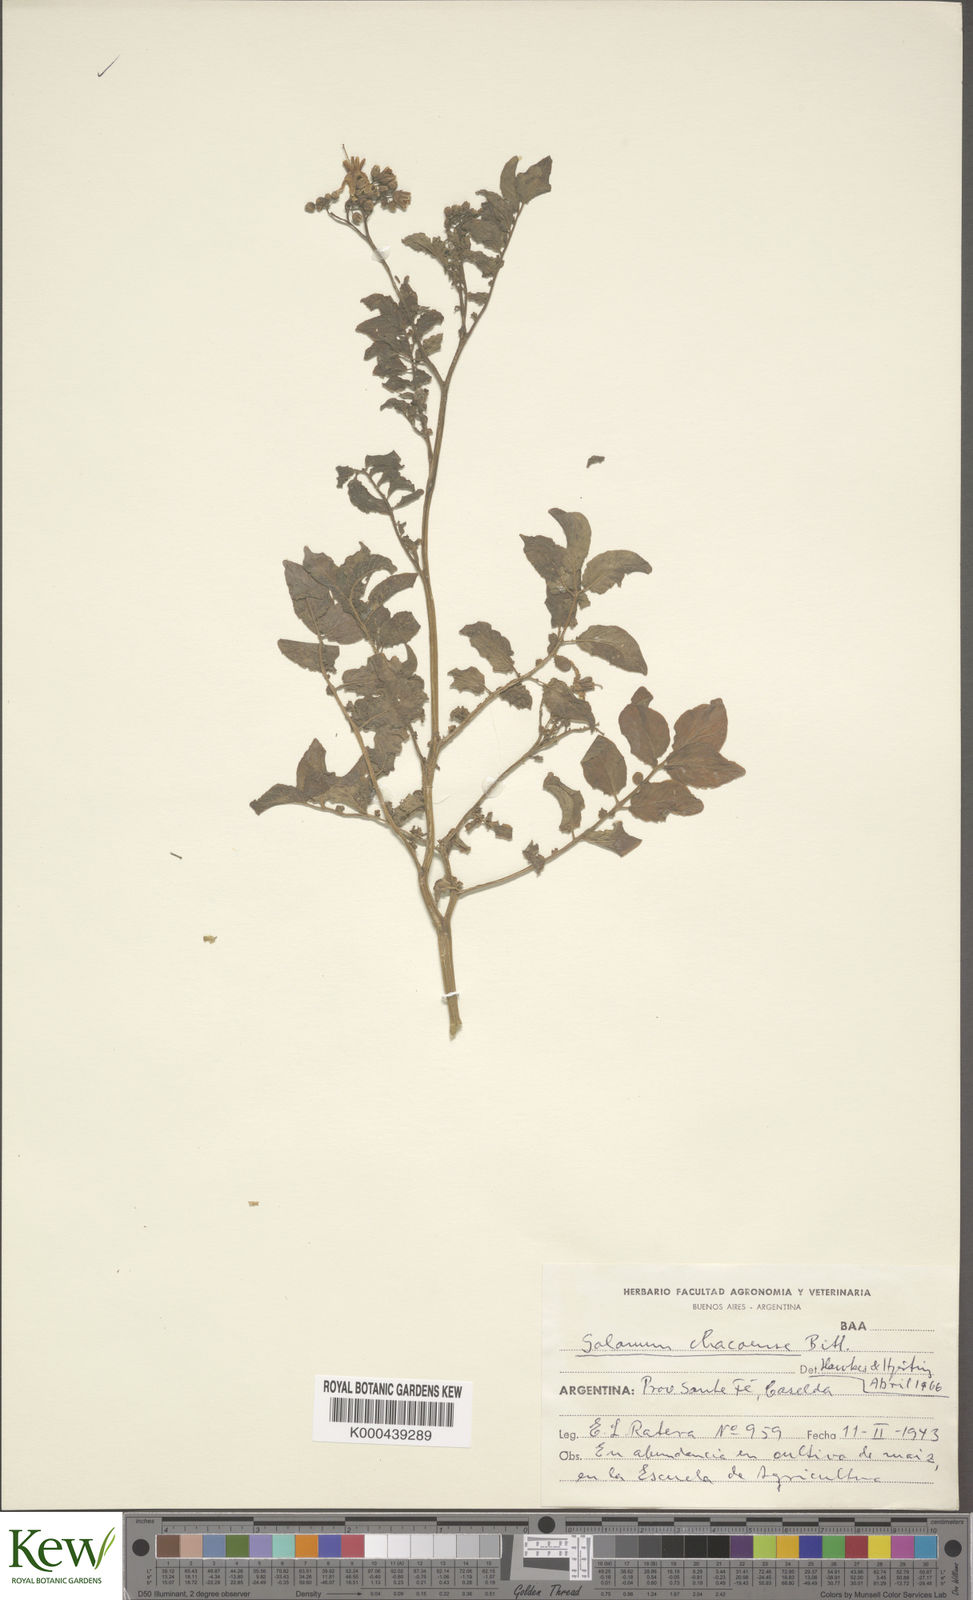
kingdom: Plantae
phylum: Tracheophyta
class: Magnoliopsida
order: Solanales
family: Solanaceae
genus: Solanum
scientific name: Solanum chacoense
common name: Chaco potato
